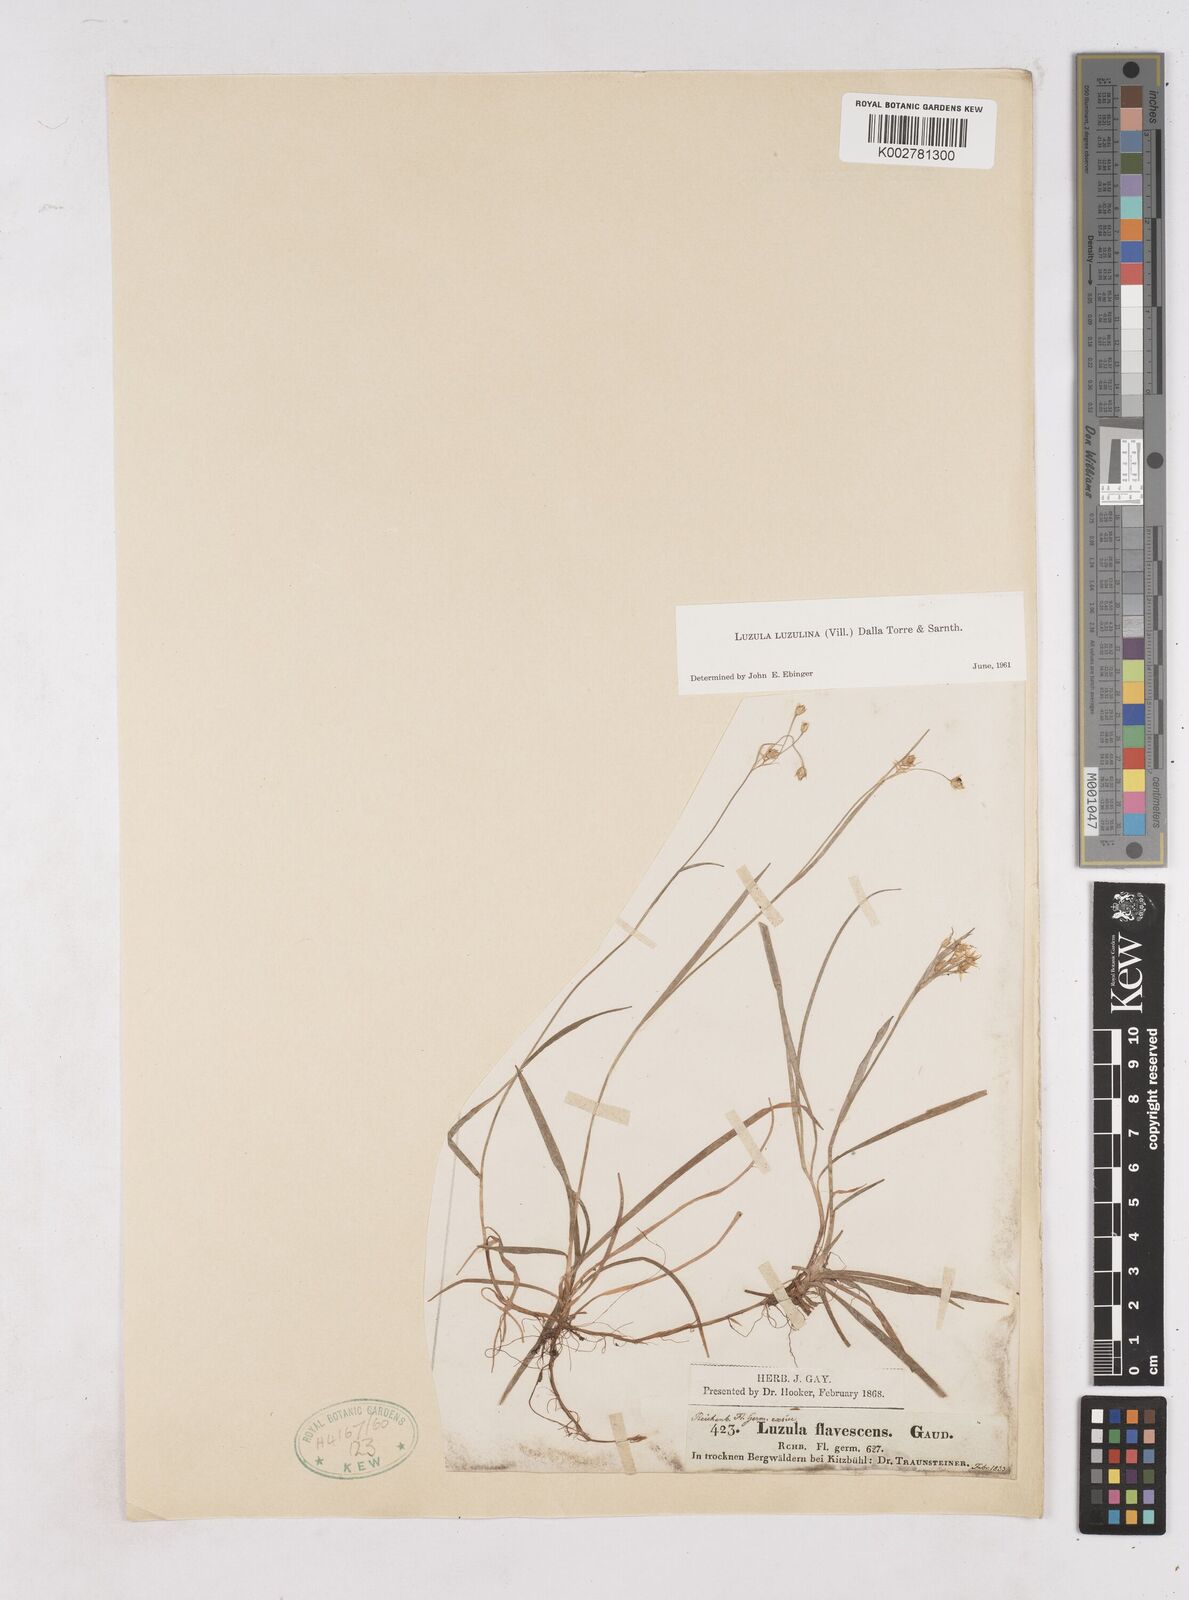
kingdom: Plantae
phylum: Tracheophyta
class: Liliopsida
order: Poales
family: Juncaceae
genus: Luzula
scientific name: Luzula luzulina
